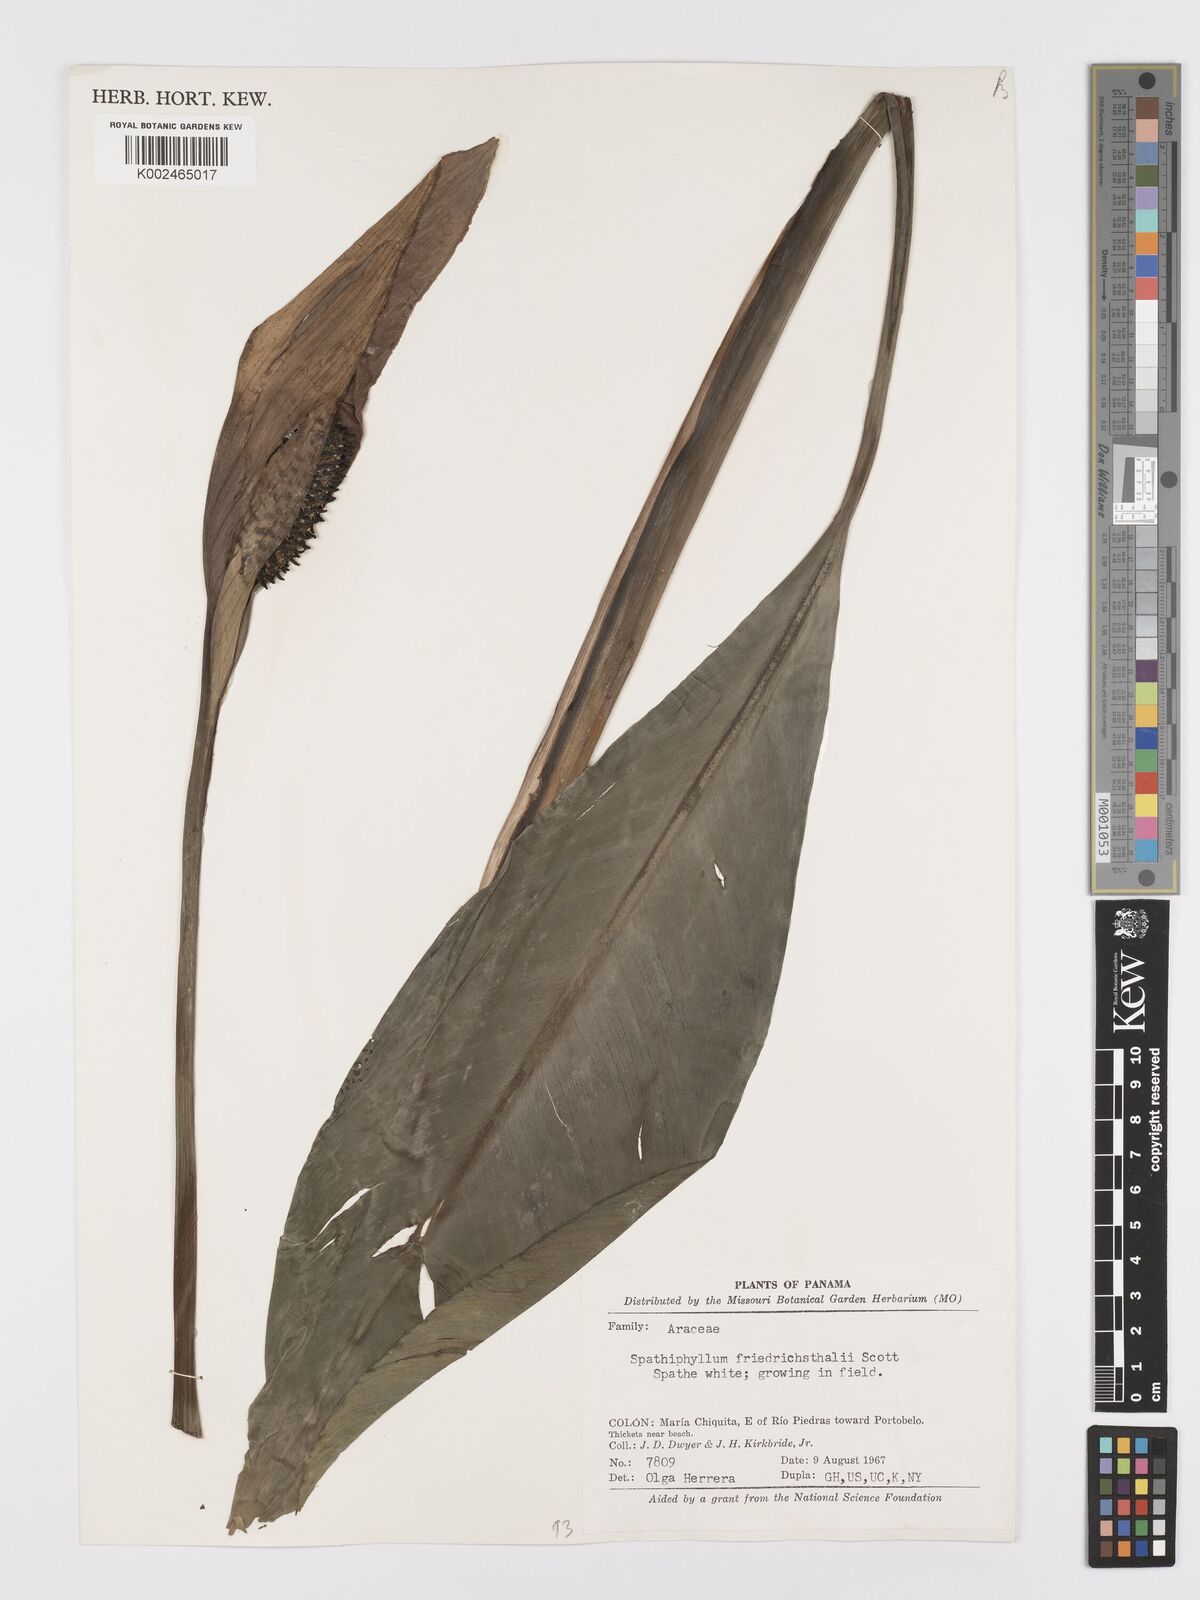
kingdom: Plantae
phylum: Tracheophyta
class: Liliopsida
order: Alismatales
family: Araceae
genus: Spathiphyllum
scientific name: Spathiphyllum friedrichsthalii
